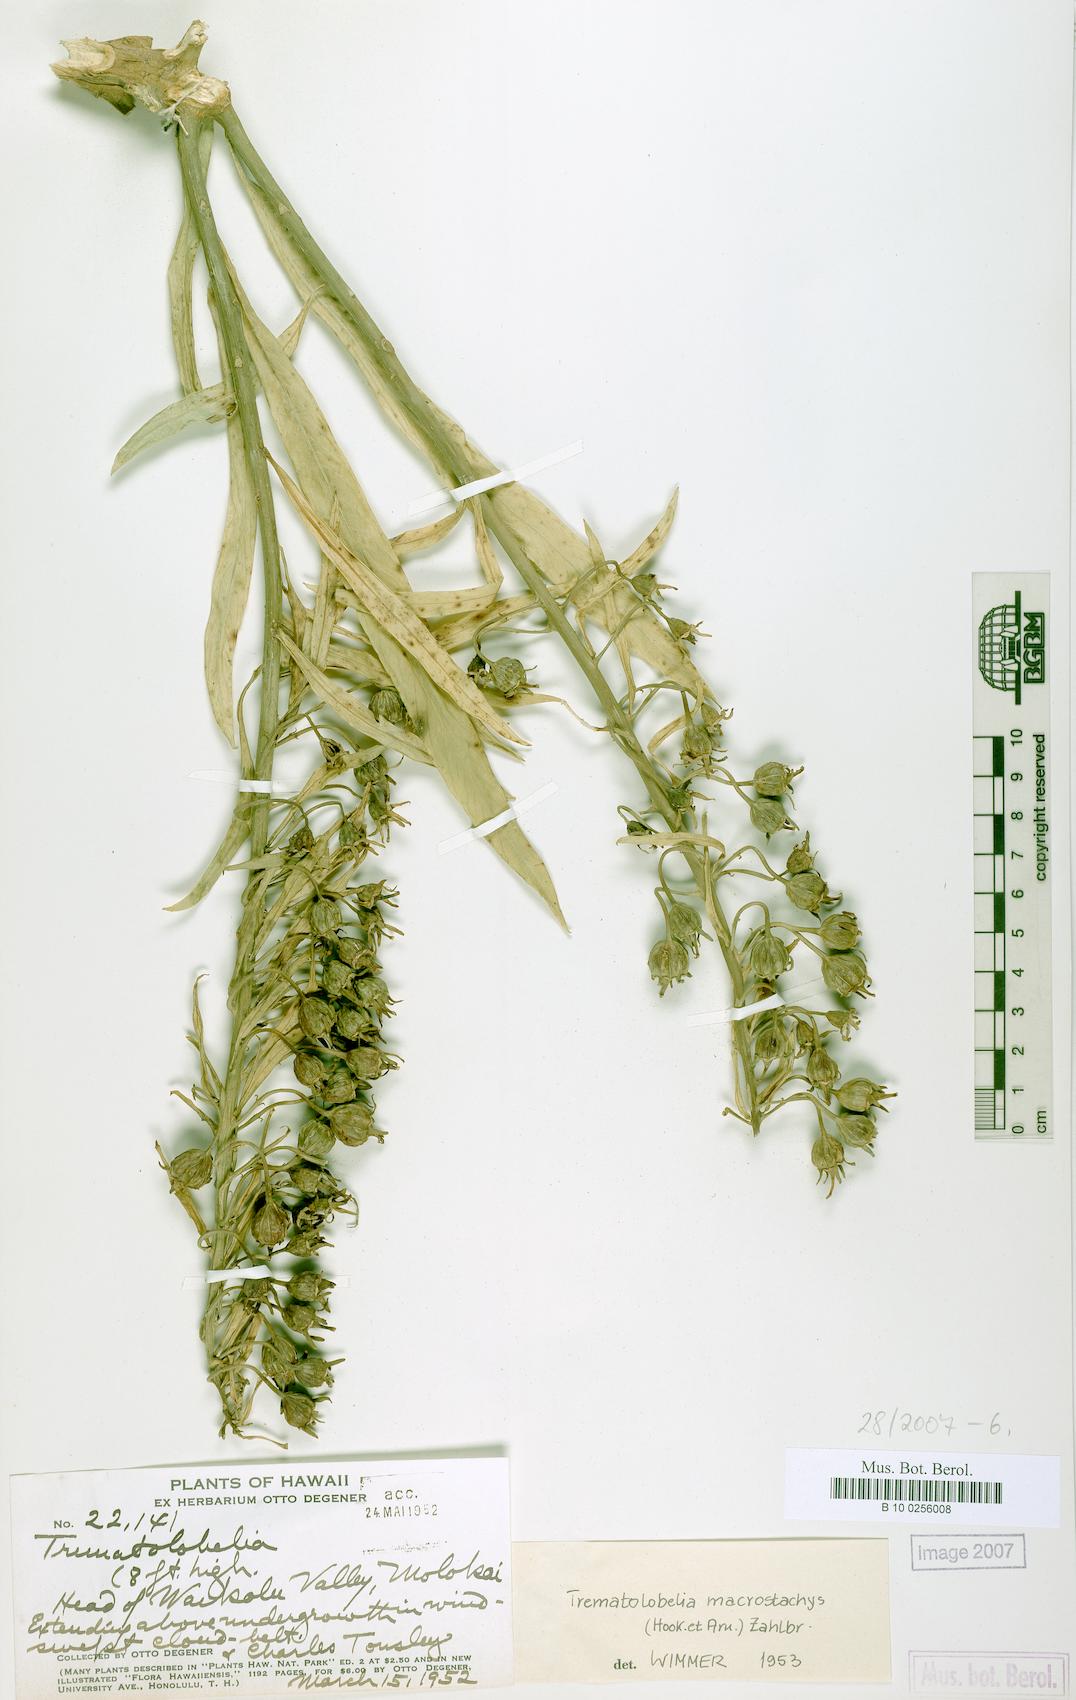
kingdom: Plantae
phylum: Tracheophyta
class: Magnoliopsida
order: Asterales
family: Campanulaceae
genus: Trematolobelia
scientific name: Trematolobelia macrostachys
